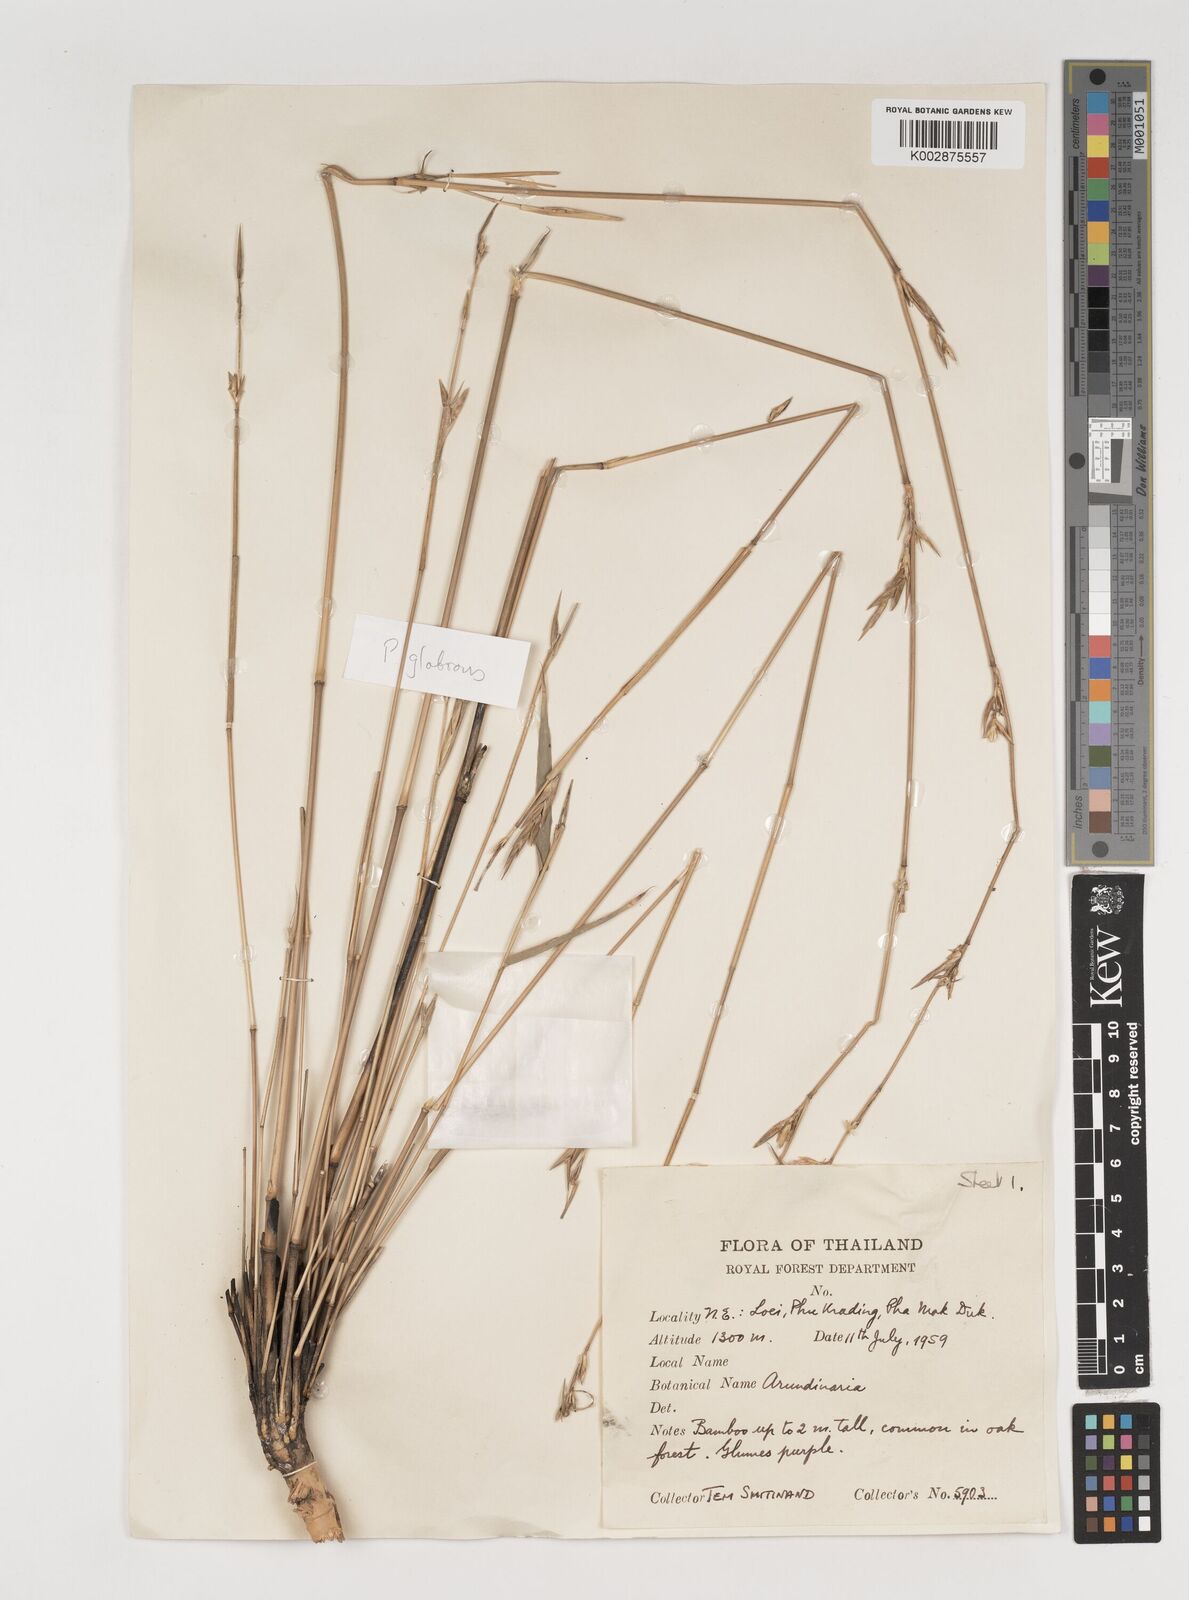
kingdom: Plantae
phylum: Tracheophyta
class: Liliopsida
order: Poales
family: Poaceae
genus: Vietnamosasa
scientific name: Vietnamosasa pusilla
